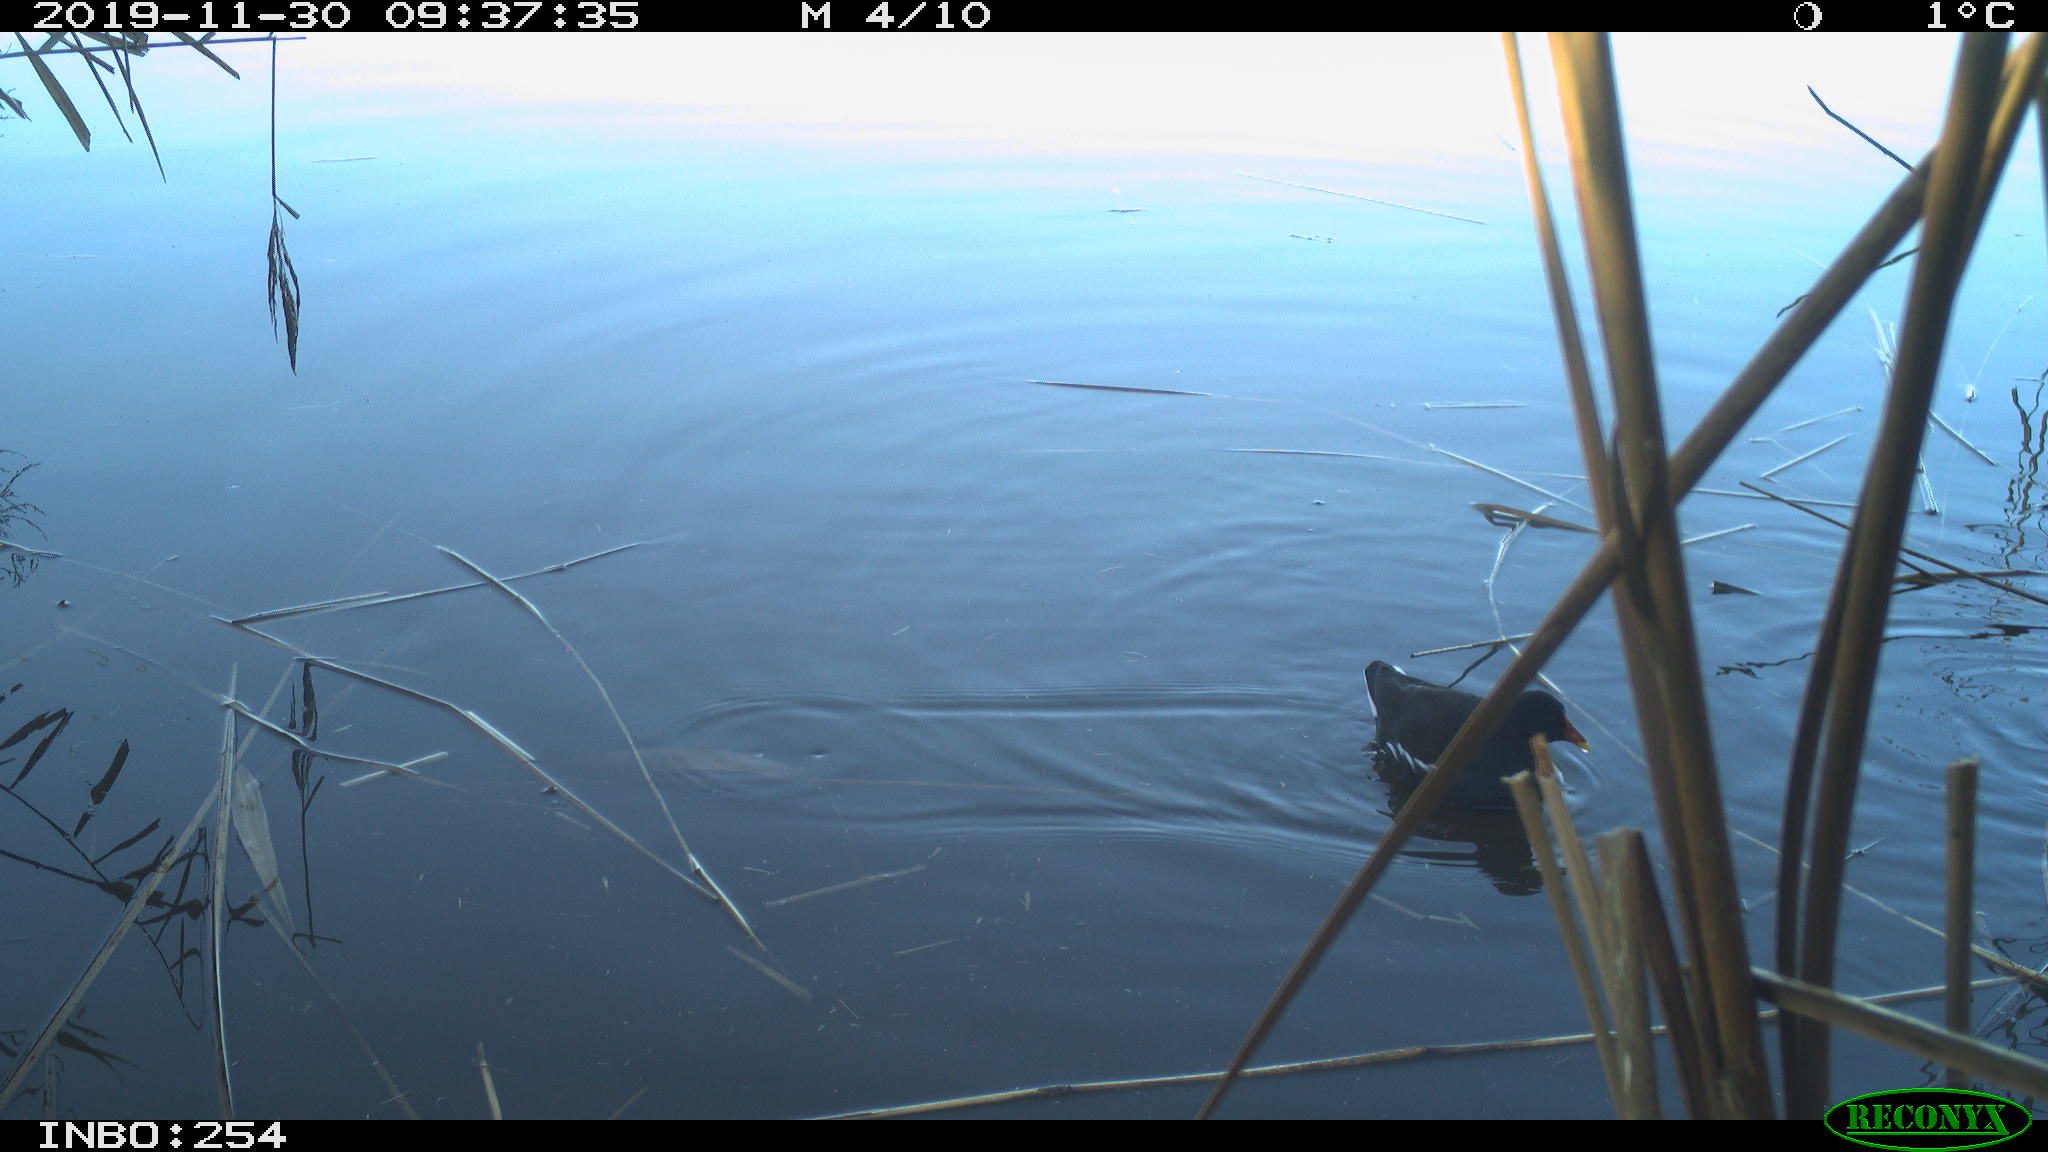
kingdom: Animalia
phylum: Chordata
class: Aves
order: Gruiformes
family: Rallidae
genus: Gallinula
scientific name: Gallinula chloropus
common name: Common moorhen
